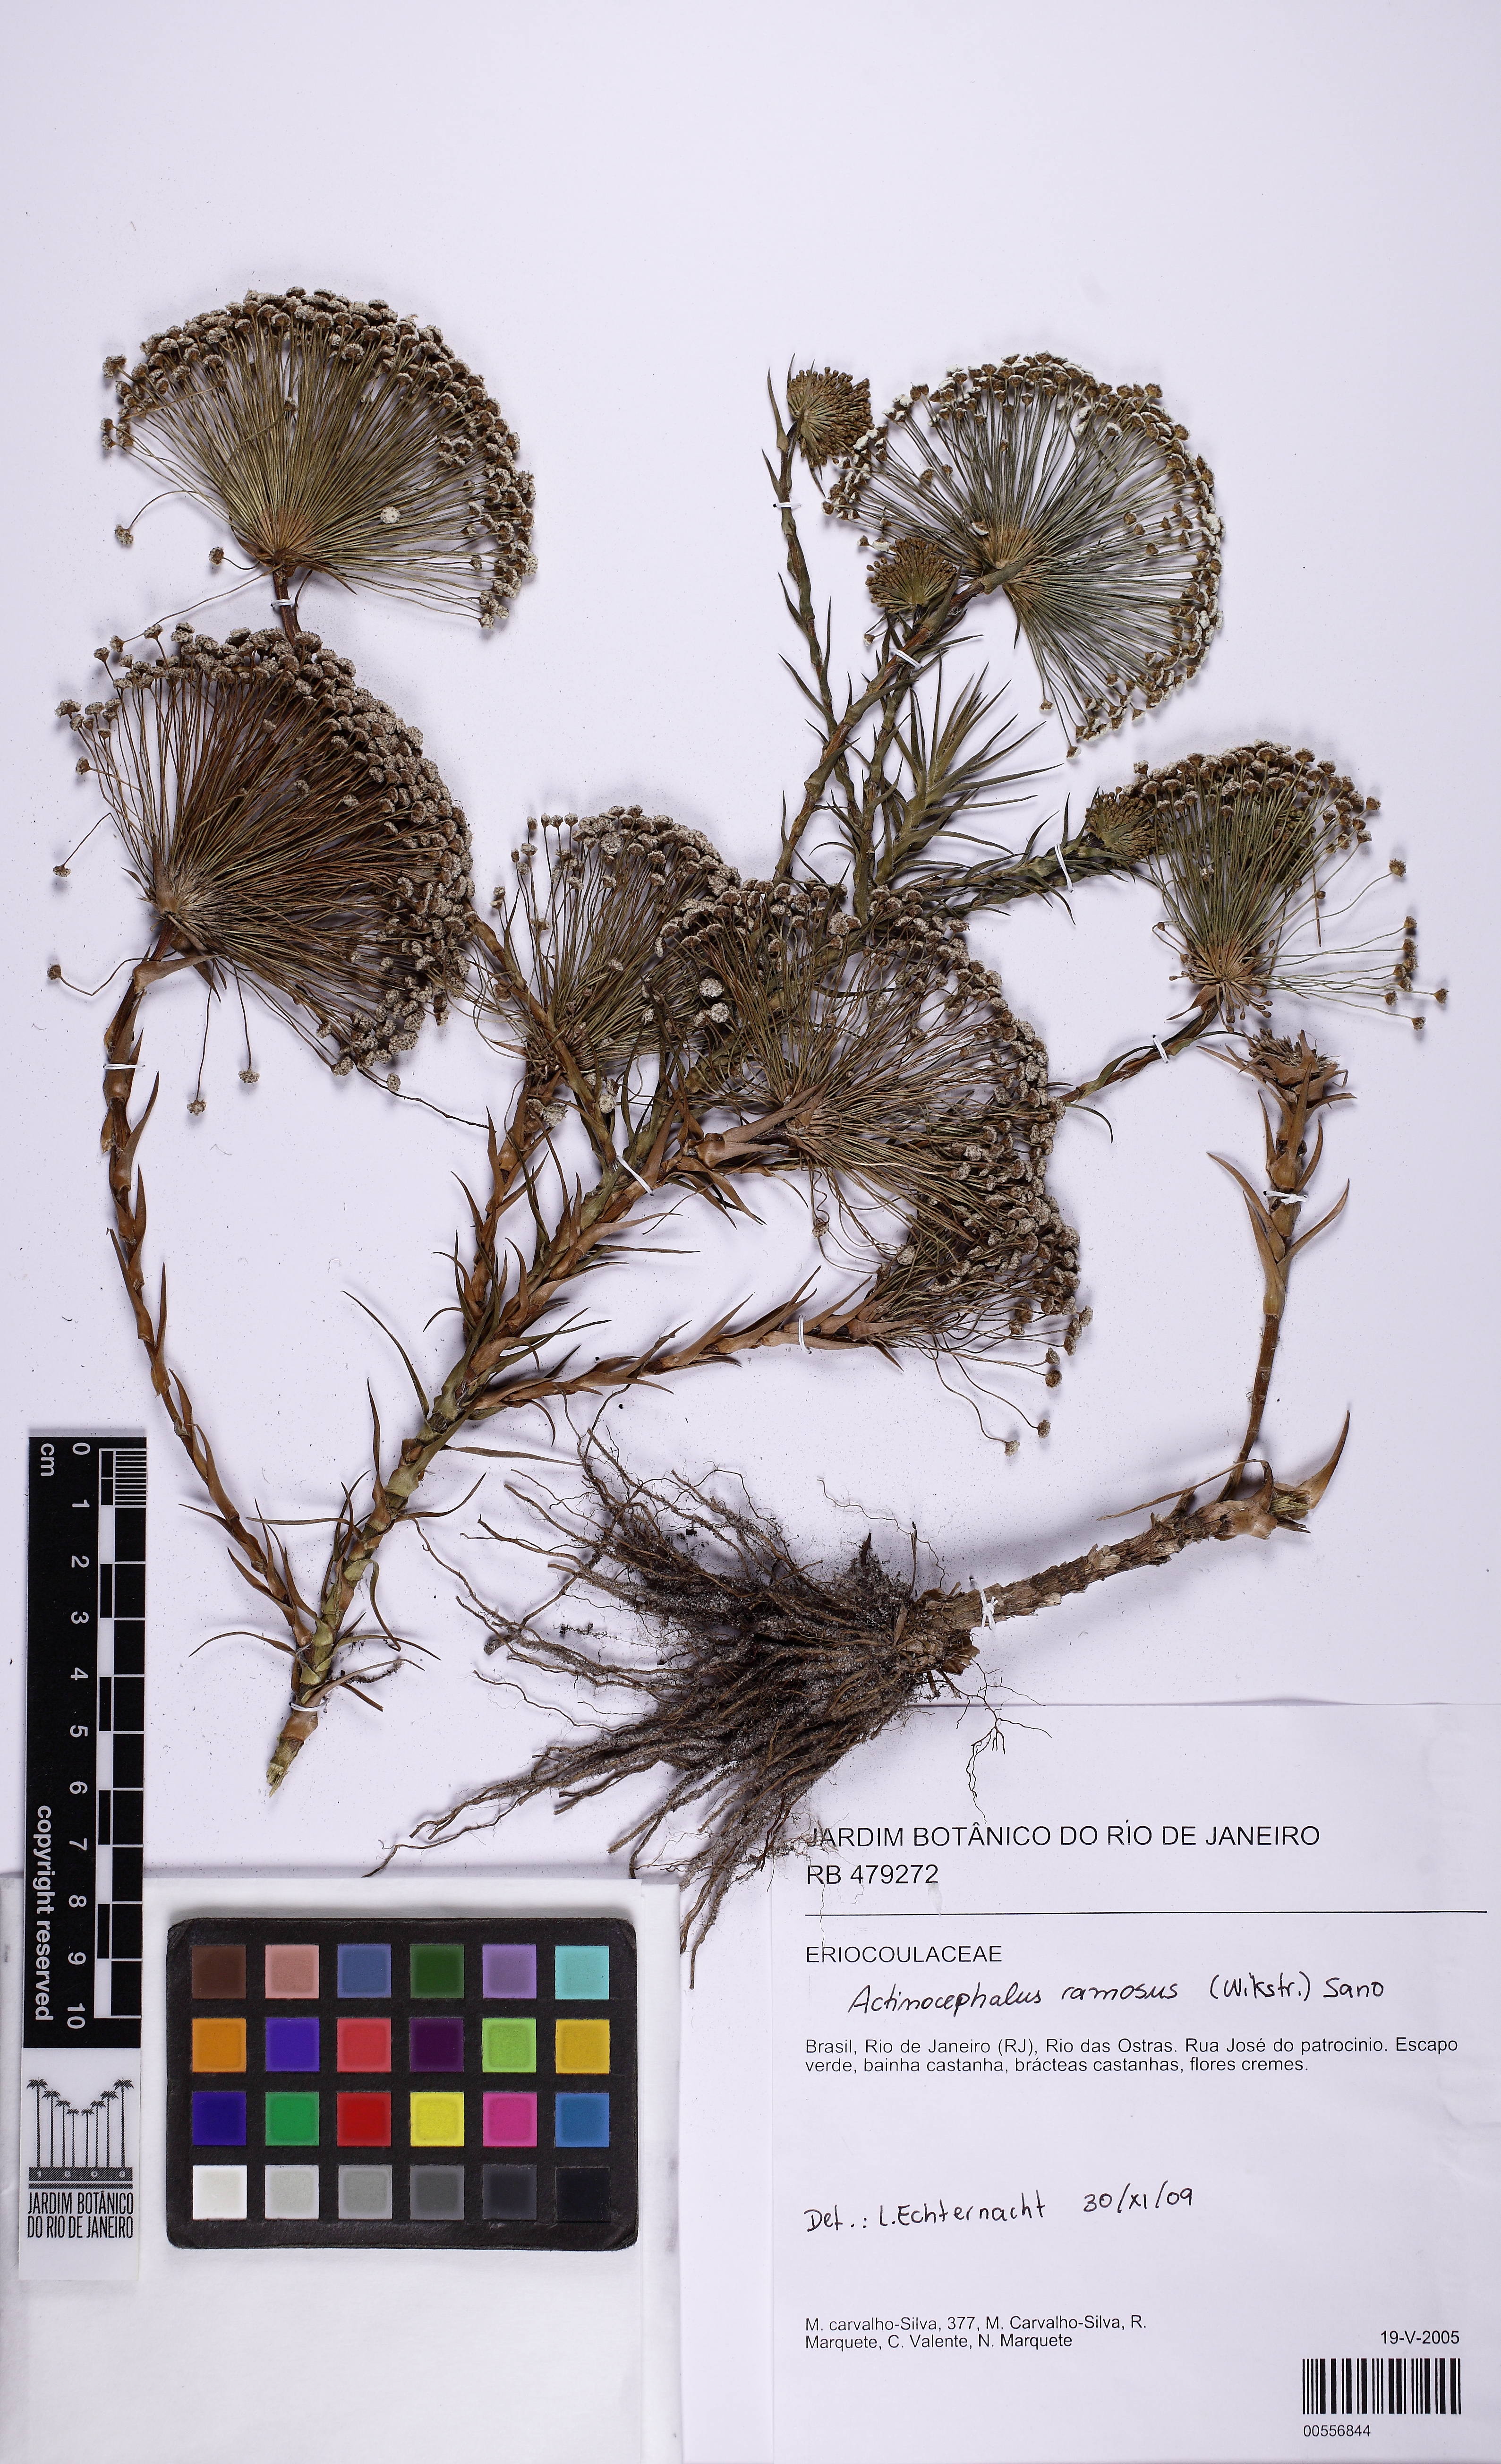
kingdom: Plantae
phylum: Tracheophyta
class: Liliopsida
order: Poales
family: Eriocaulaceae
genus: Paepalanthus
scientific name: Paepalanthus ramosus
